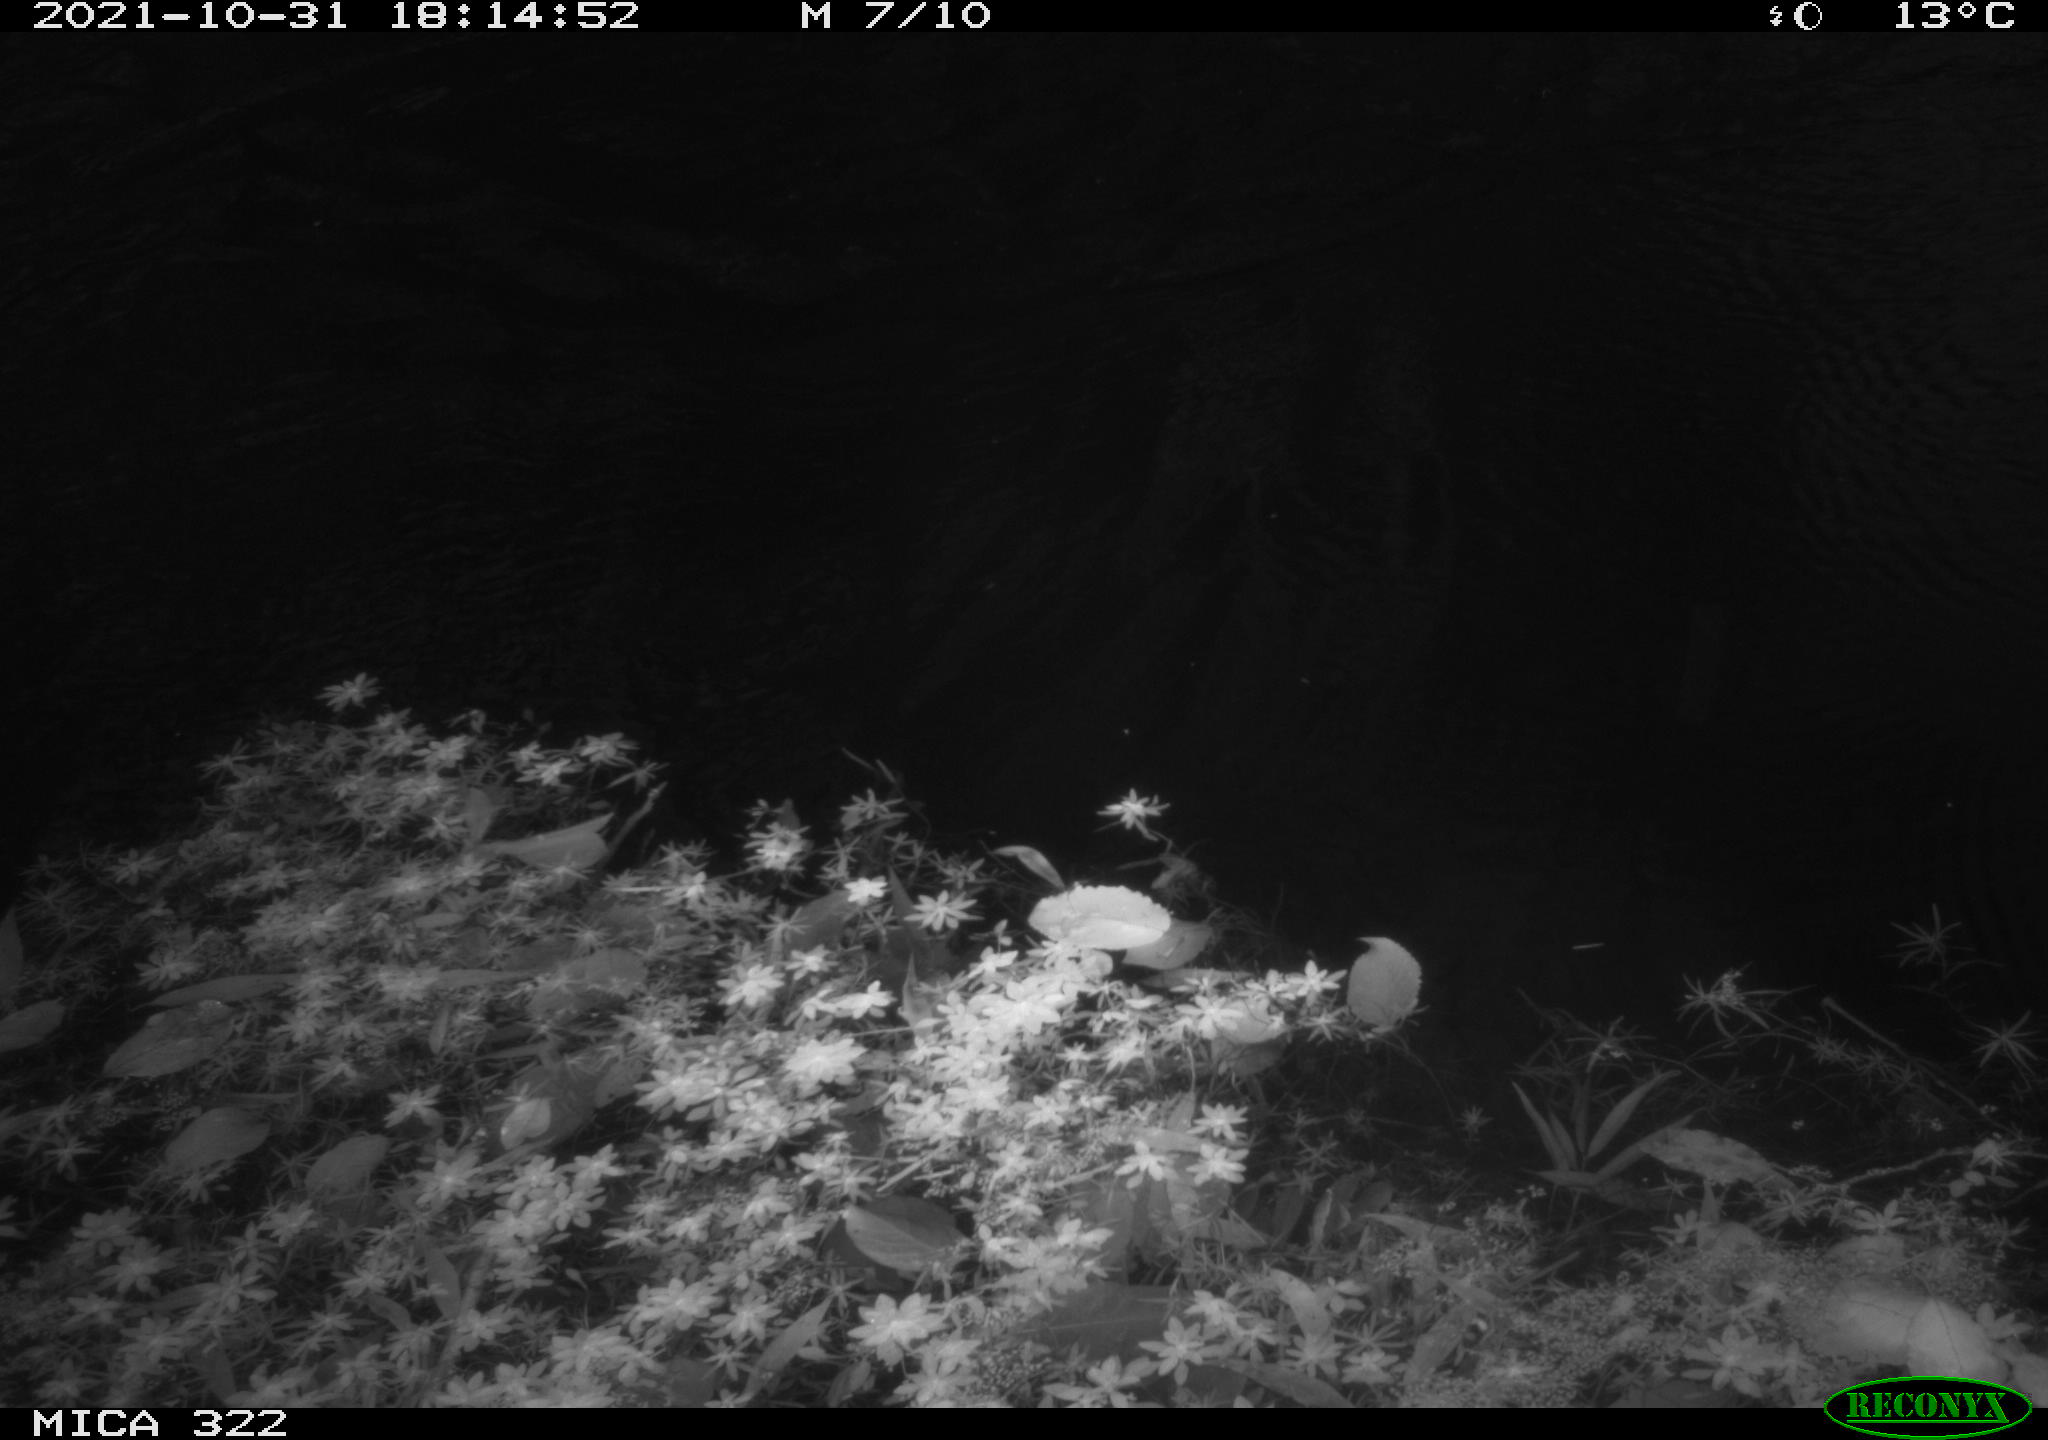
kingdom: Animalia
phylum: Chordata
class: Aves
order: Gruiformes
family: Rallidae
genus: Gallinula
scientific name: Gallinula chloropus
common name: Common moorhen
